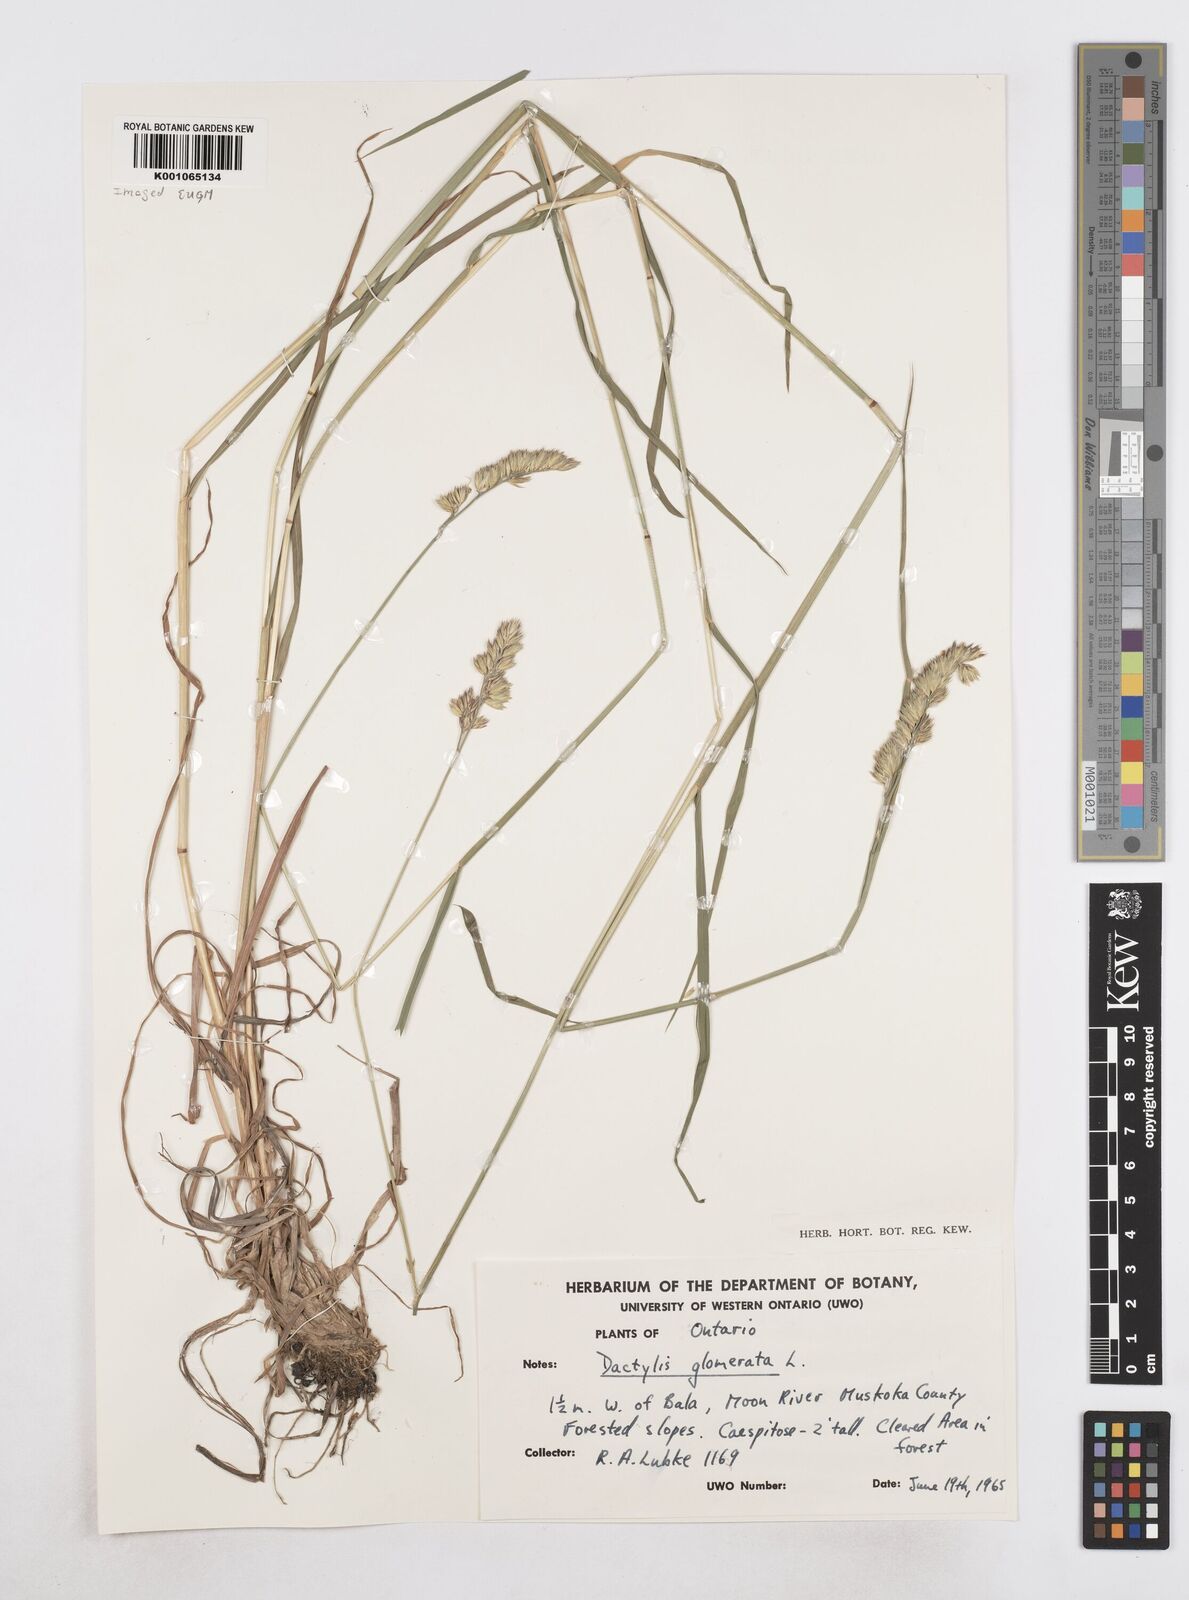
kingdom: Plantae
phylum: Tracheophyta
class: Liliopsida
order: Poales
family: Poaceae
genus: Dactylis
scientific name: Dactylis glomerata
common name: Orchardgrass
